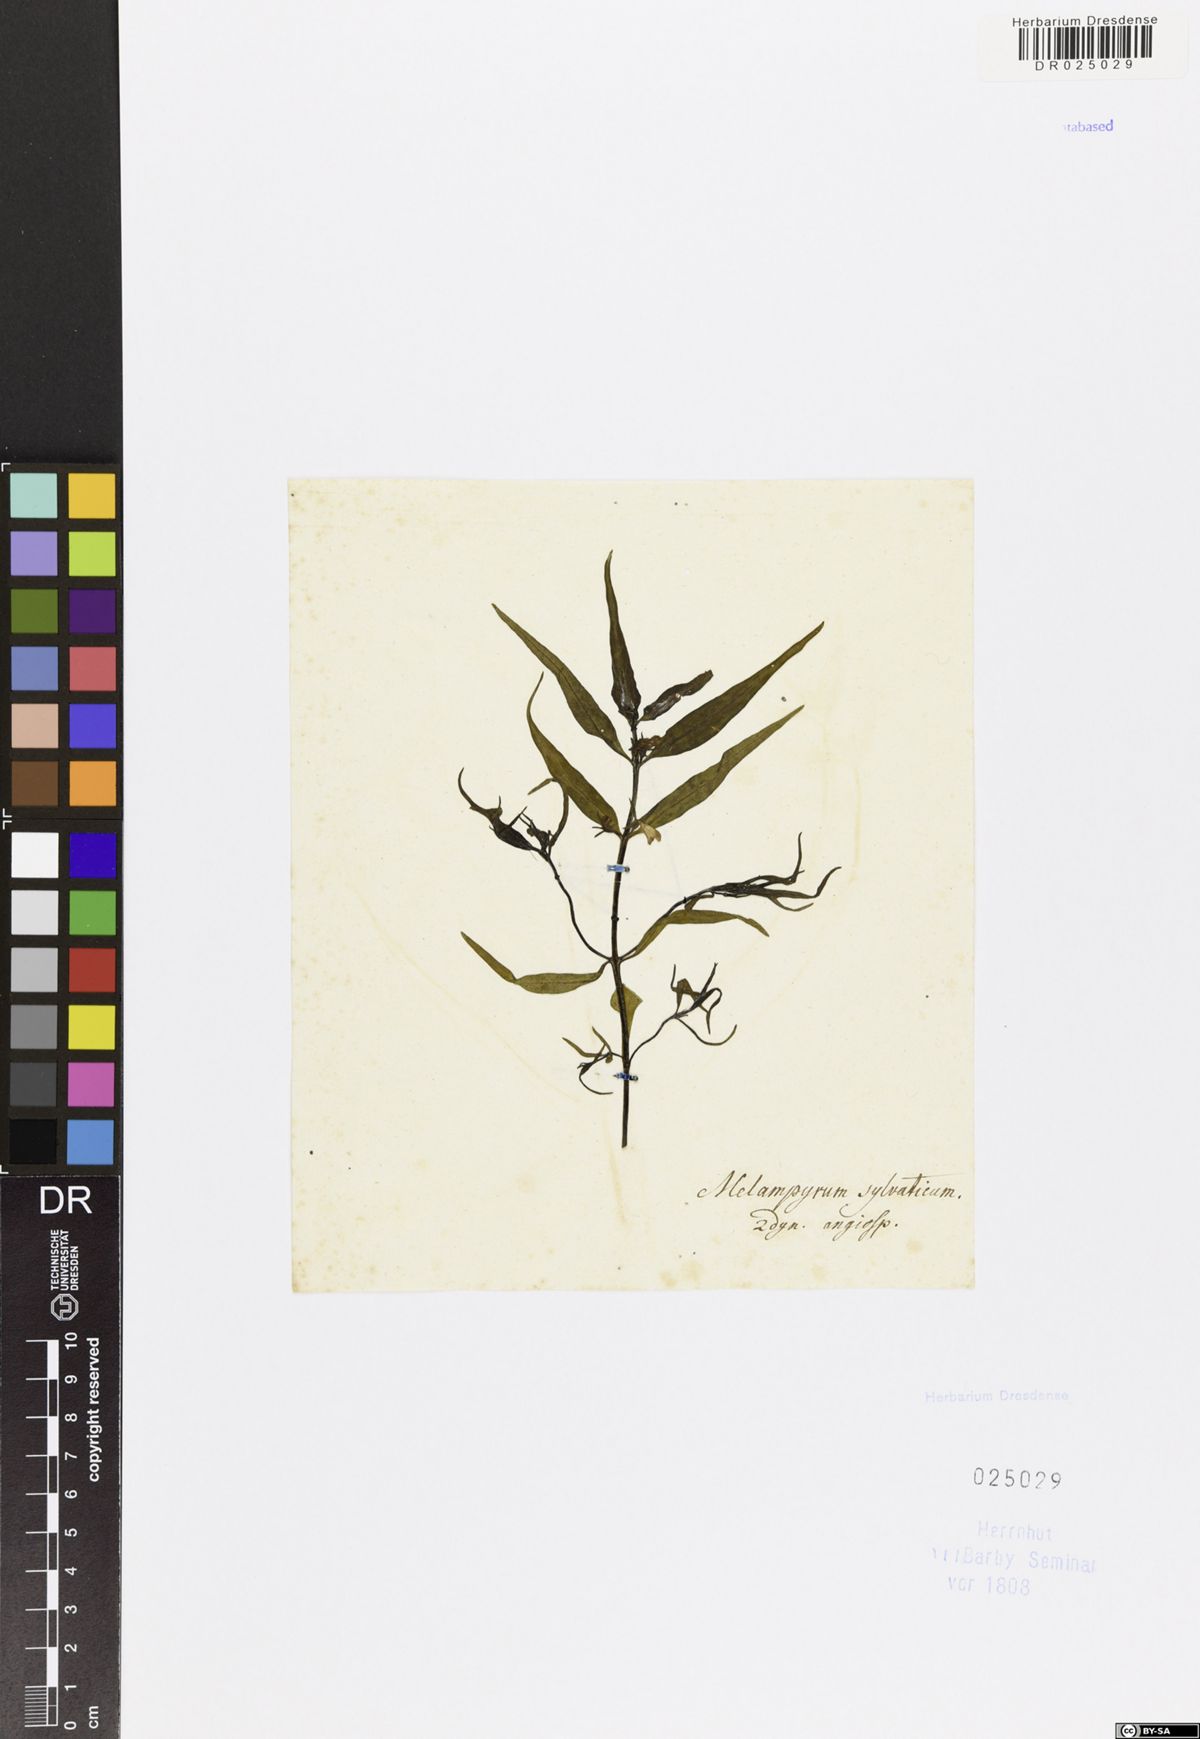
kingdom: Plantae
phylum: Tracheophyta
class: Magnoliopsida
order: Lamiales
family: Orobanchaceae
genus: Melampyrum
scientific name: Melampyrum sylvaticum
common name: Small cow-wheat
